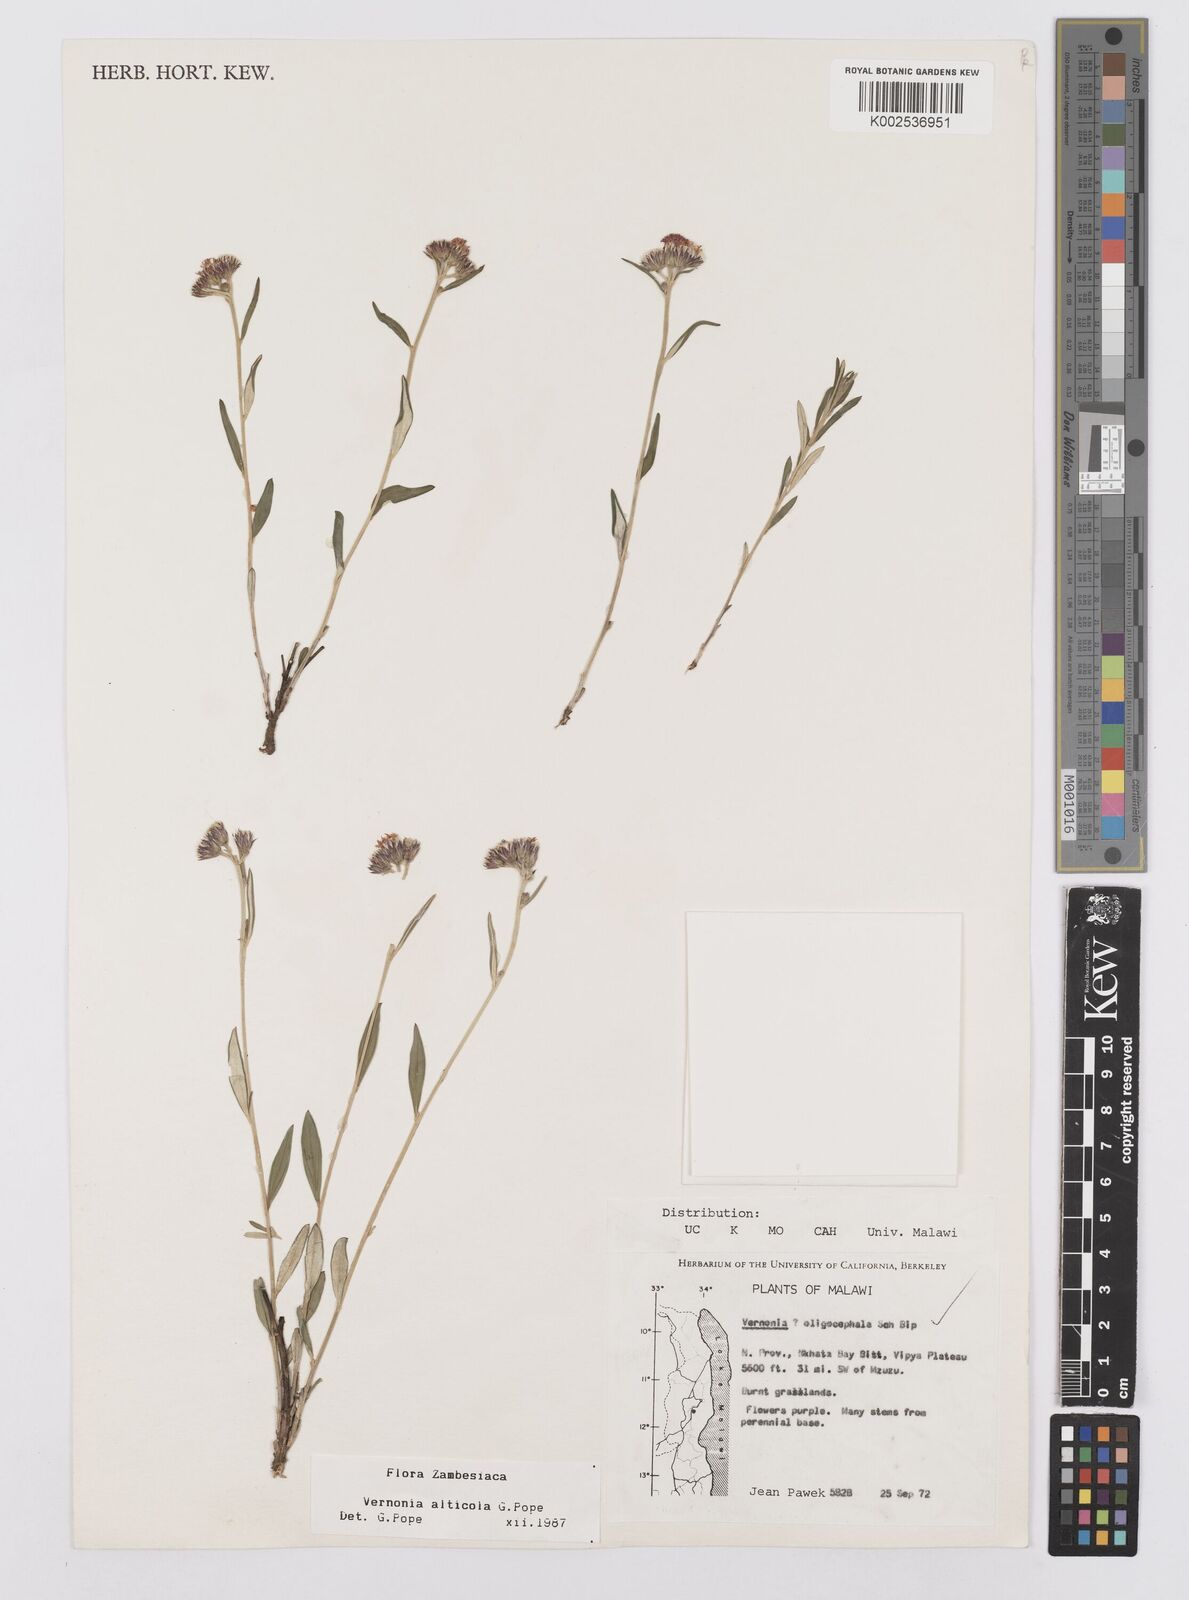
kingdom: Plantae
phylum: Tracheophyta
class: Magnoliopsida
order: Asterales
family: Asteraceae
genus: Vernonia
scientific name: Vernonia alticola
